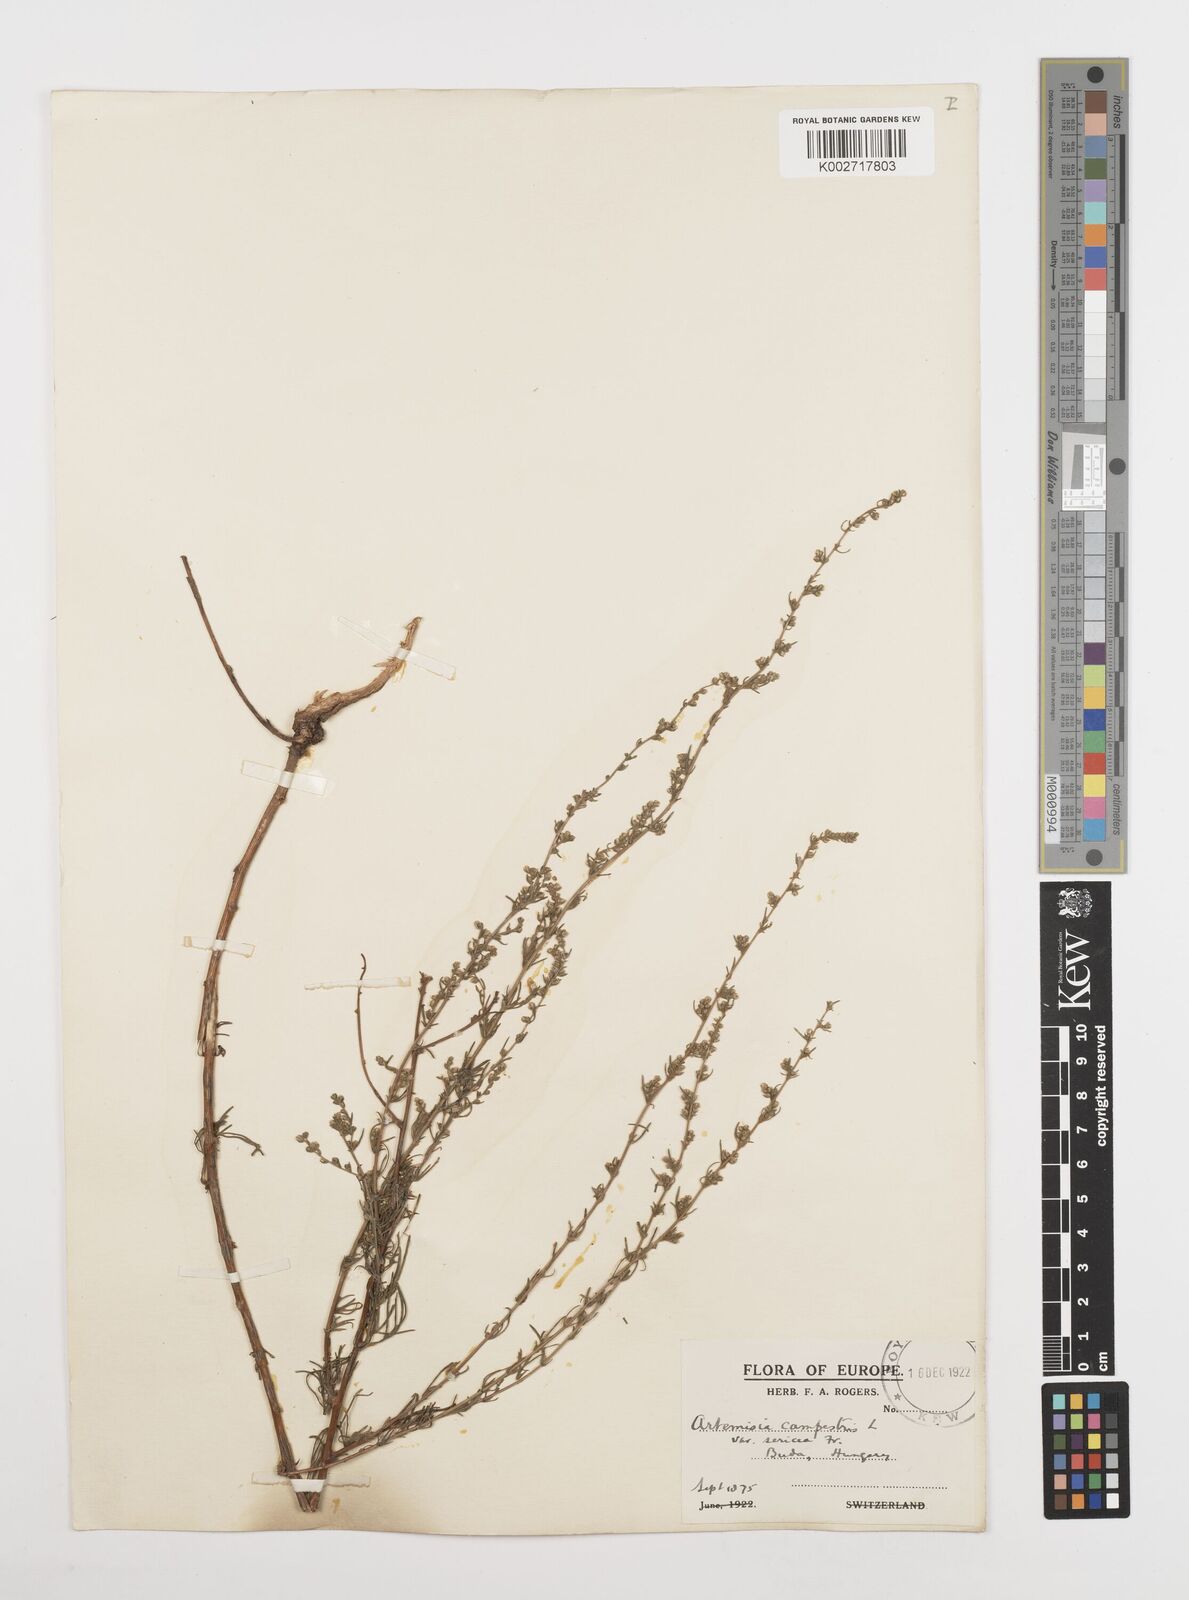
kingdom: Plantae
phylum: Tracheophyta
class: Magnoliopsida
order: Asterales
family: Asteraceae
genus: Artemisia
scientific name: Artemisia campestris
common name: Field wormwood
